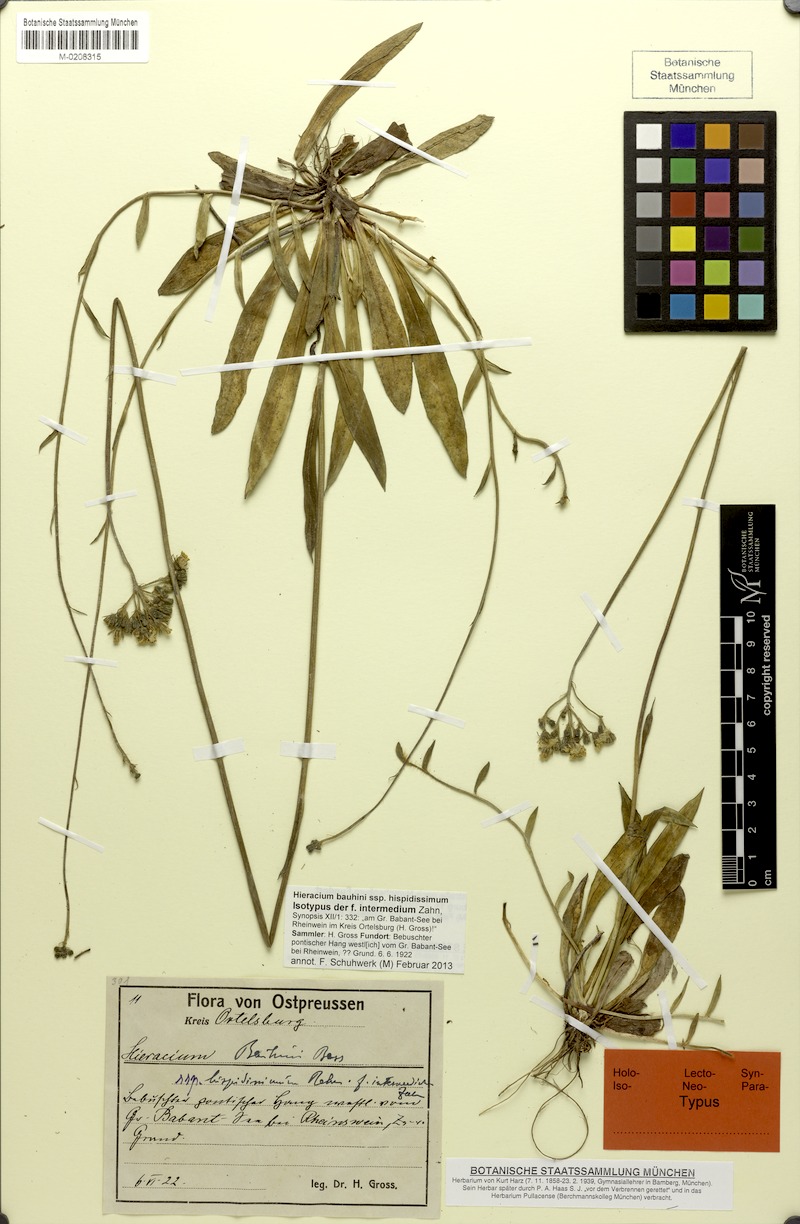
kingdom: Plantae
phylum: Tracheophyta
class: Magnoliopsida
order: Asterales
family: Asteraceae
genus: Pilosella
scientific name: Pilosella bauhini
